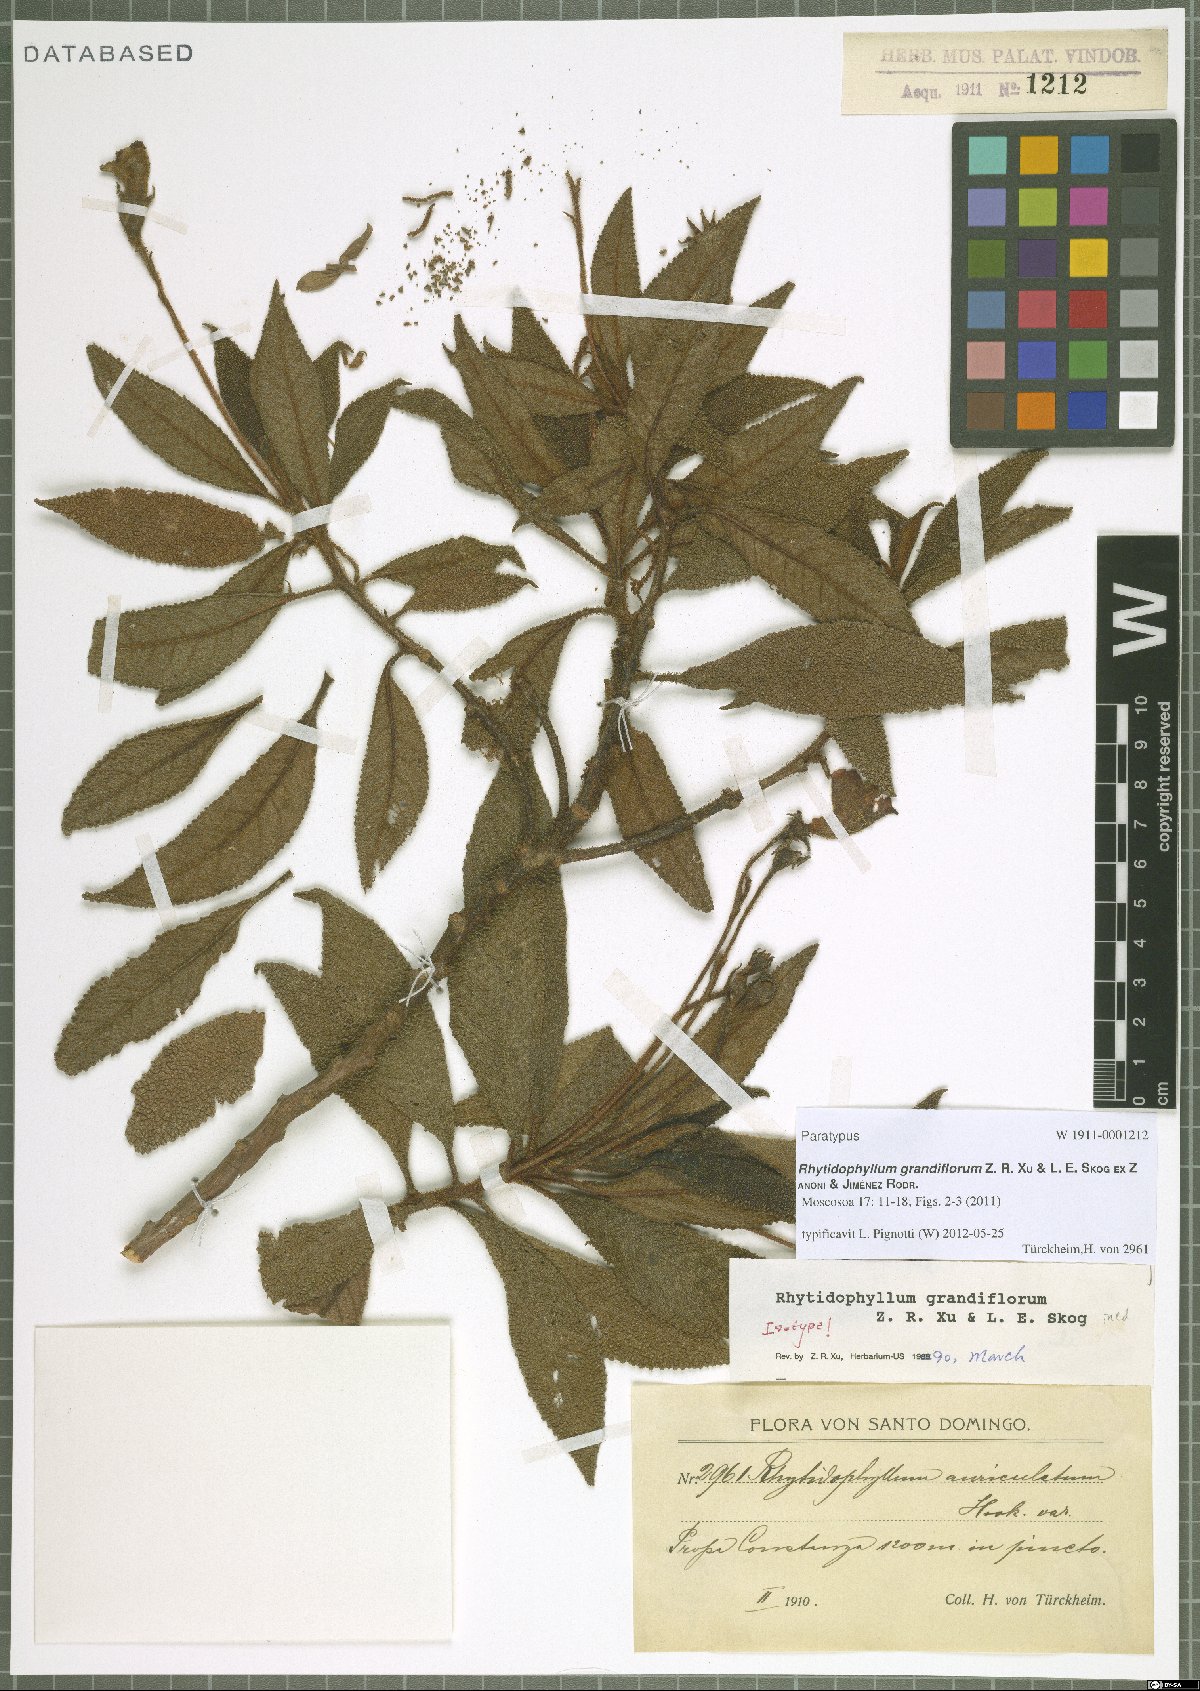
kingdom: Plantae
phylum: Tracheophyta
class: Magnoliopsida
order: Lamiales
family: Gesneriaceae
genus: Rhytidophyllum
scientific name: Rhytidophyllum grandiflorum
